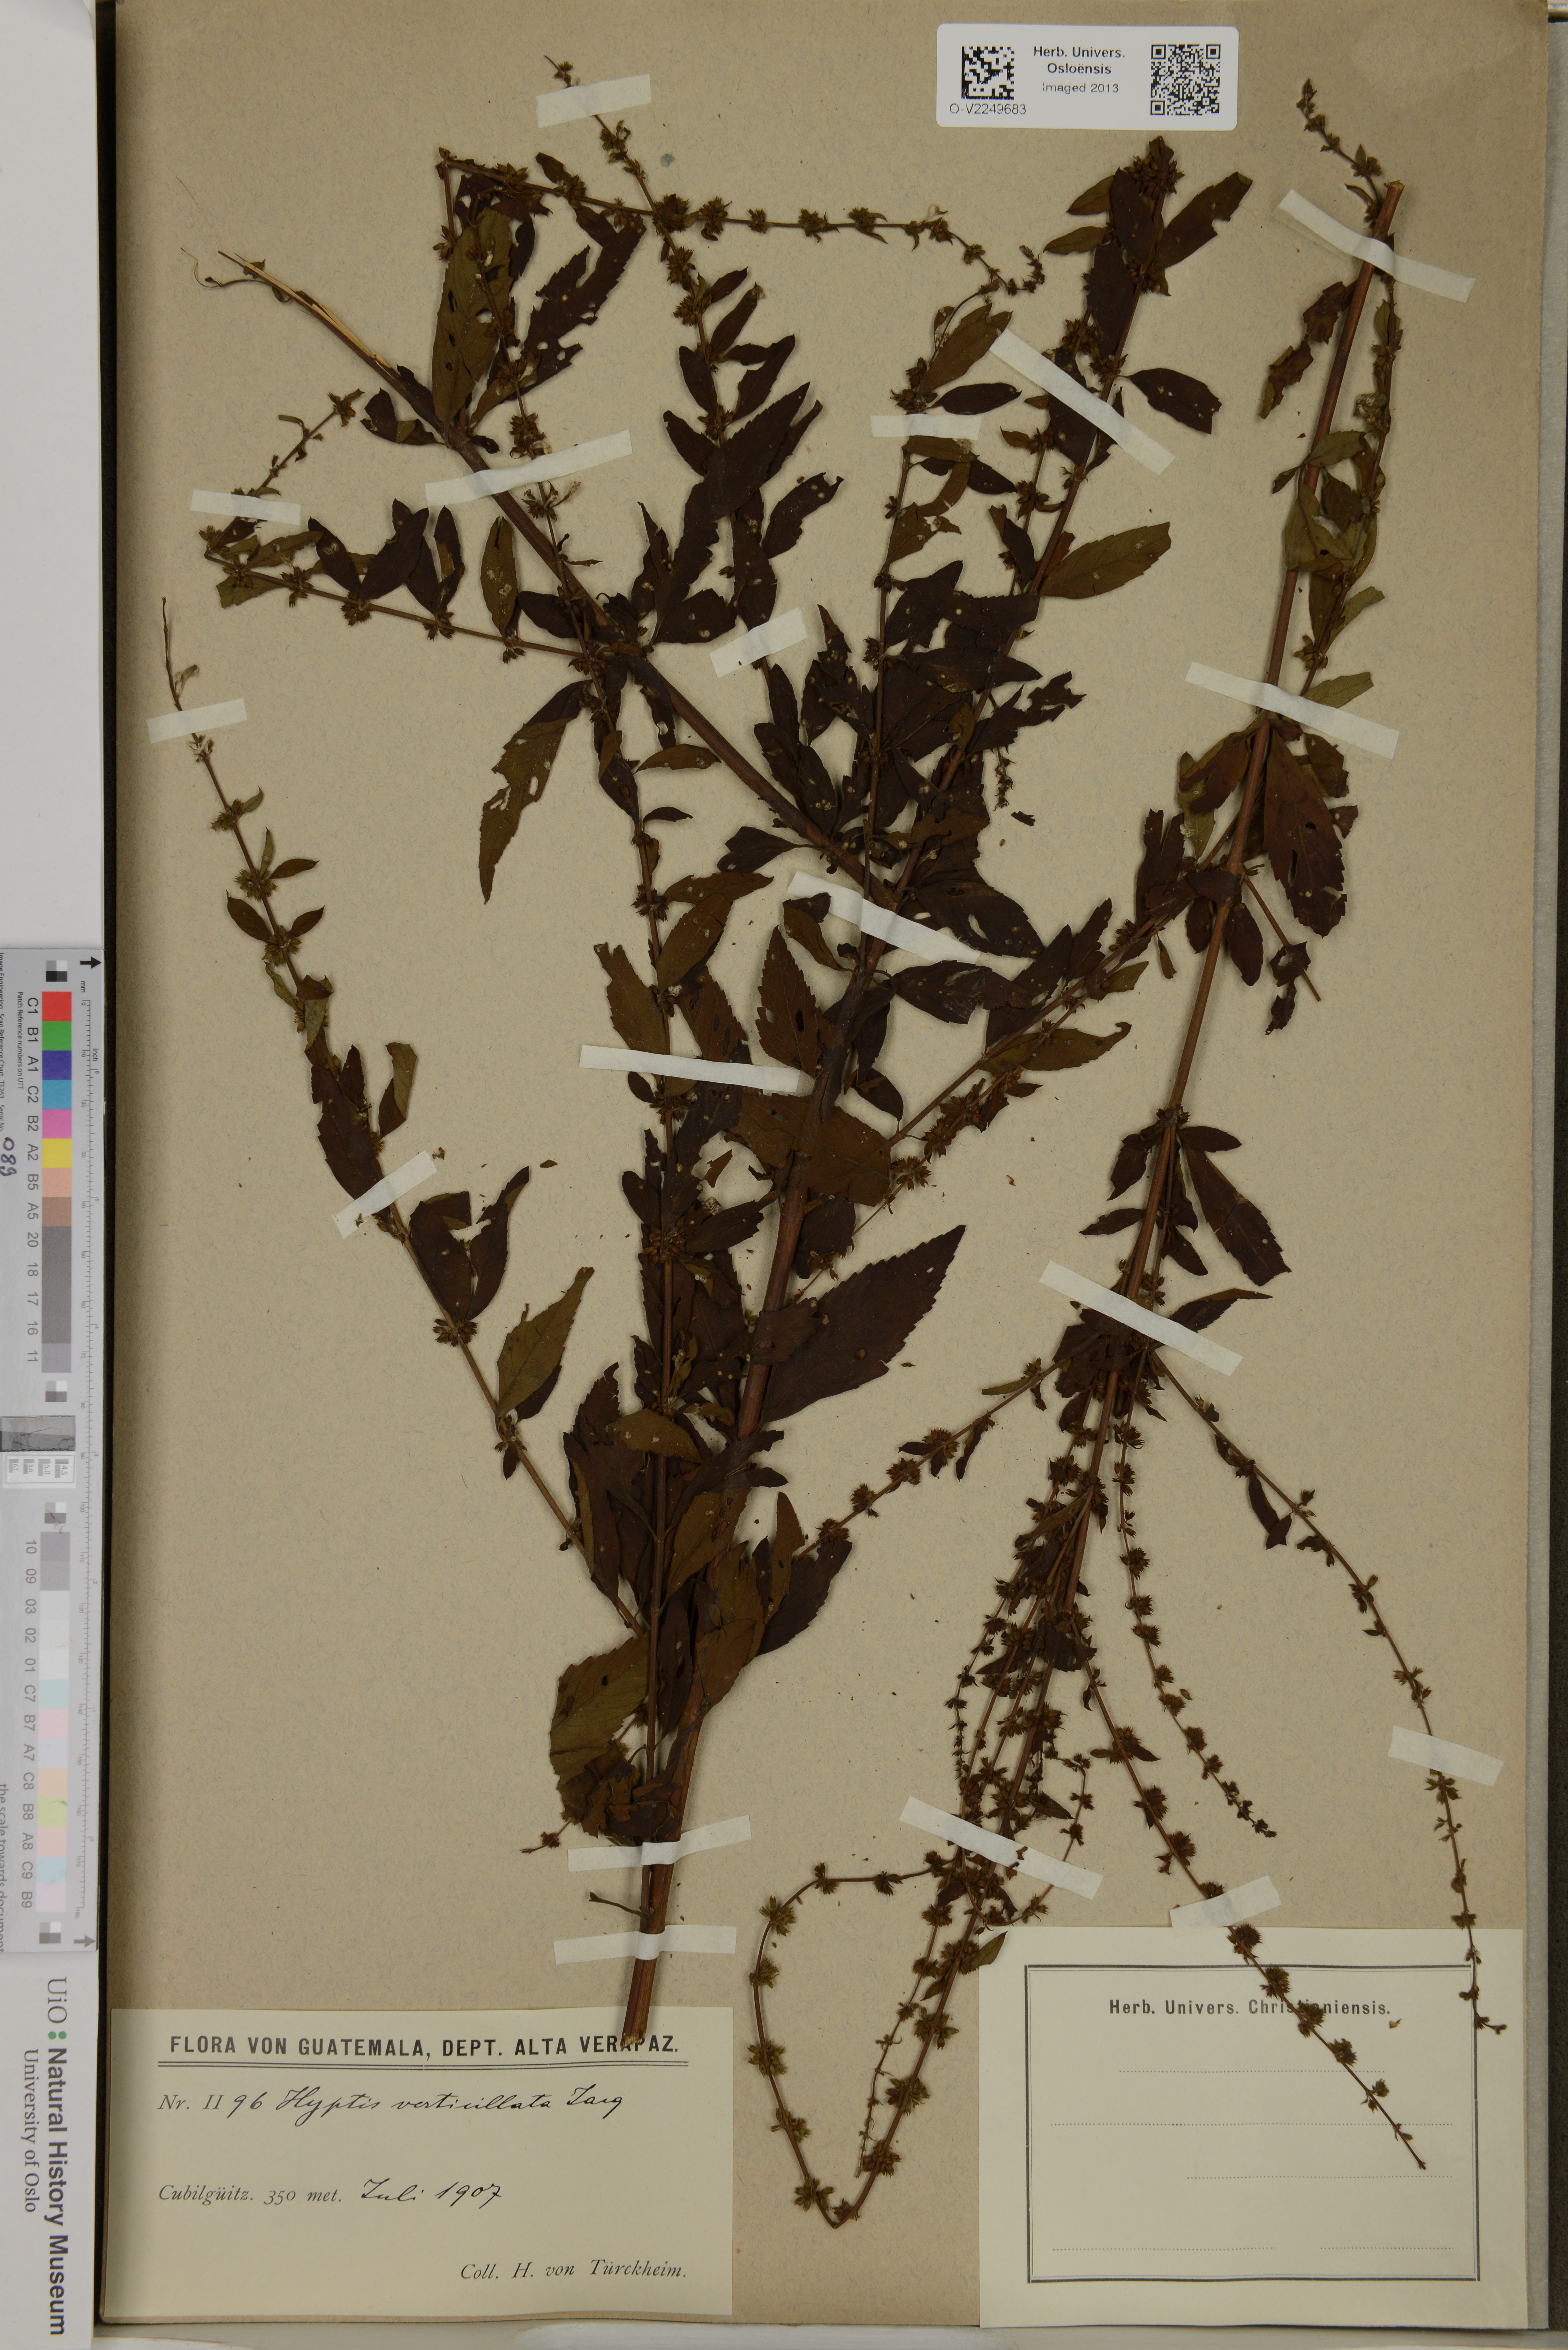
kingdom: Plantae
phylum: Tracheophyta
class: Magnoliopsida
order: Lamiales
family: Lamiaceae
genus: Condea
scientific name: Condea verticillata
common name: John charles
